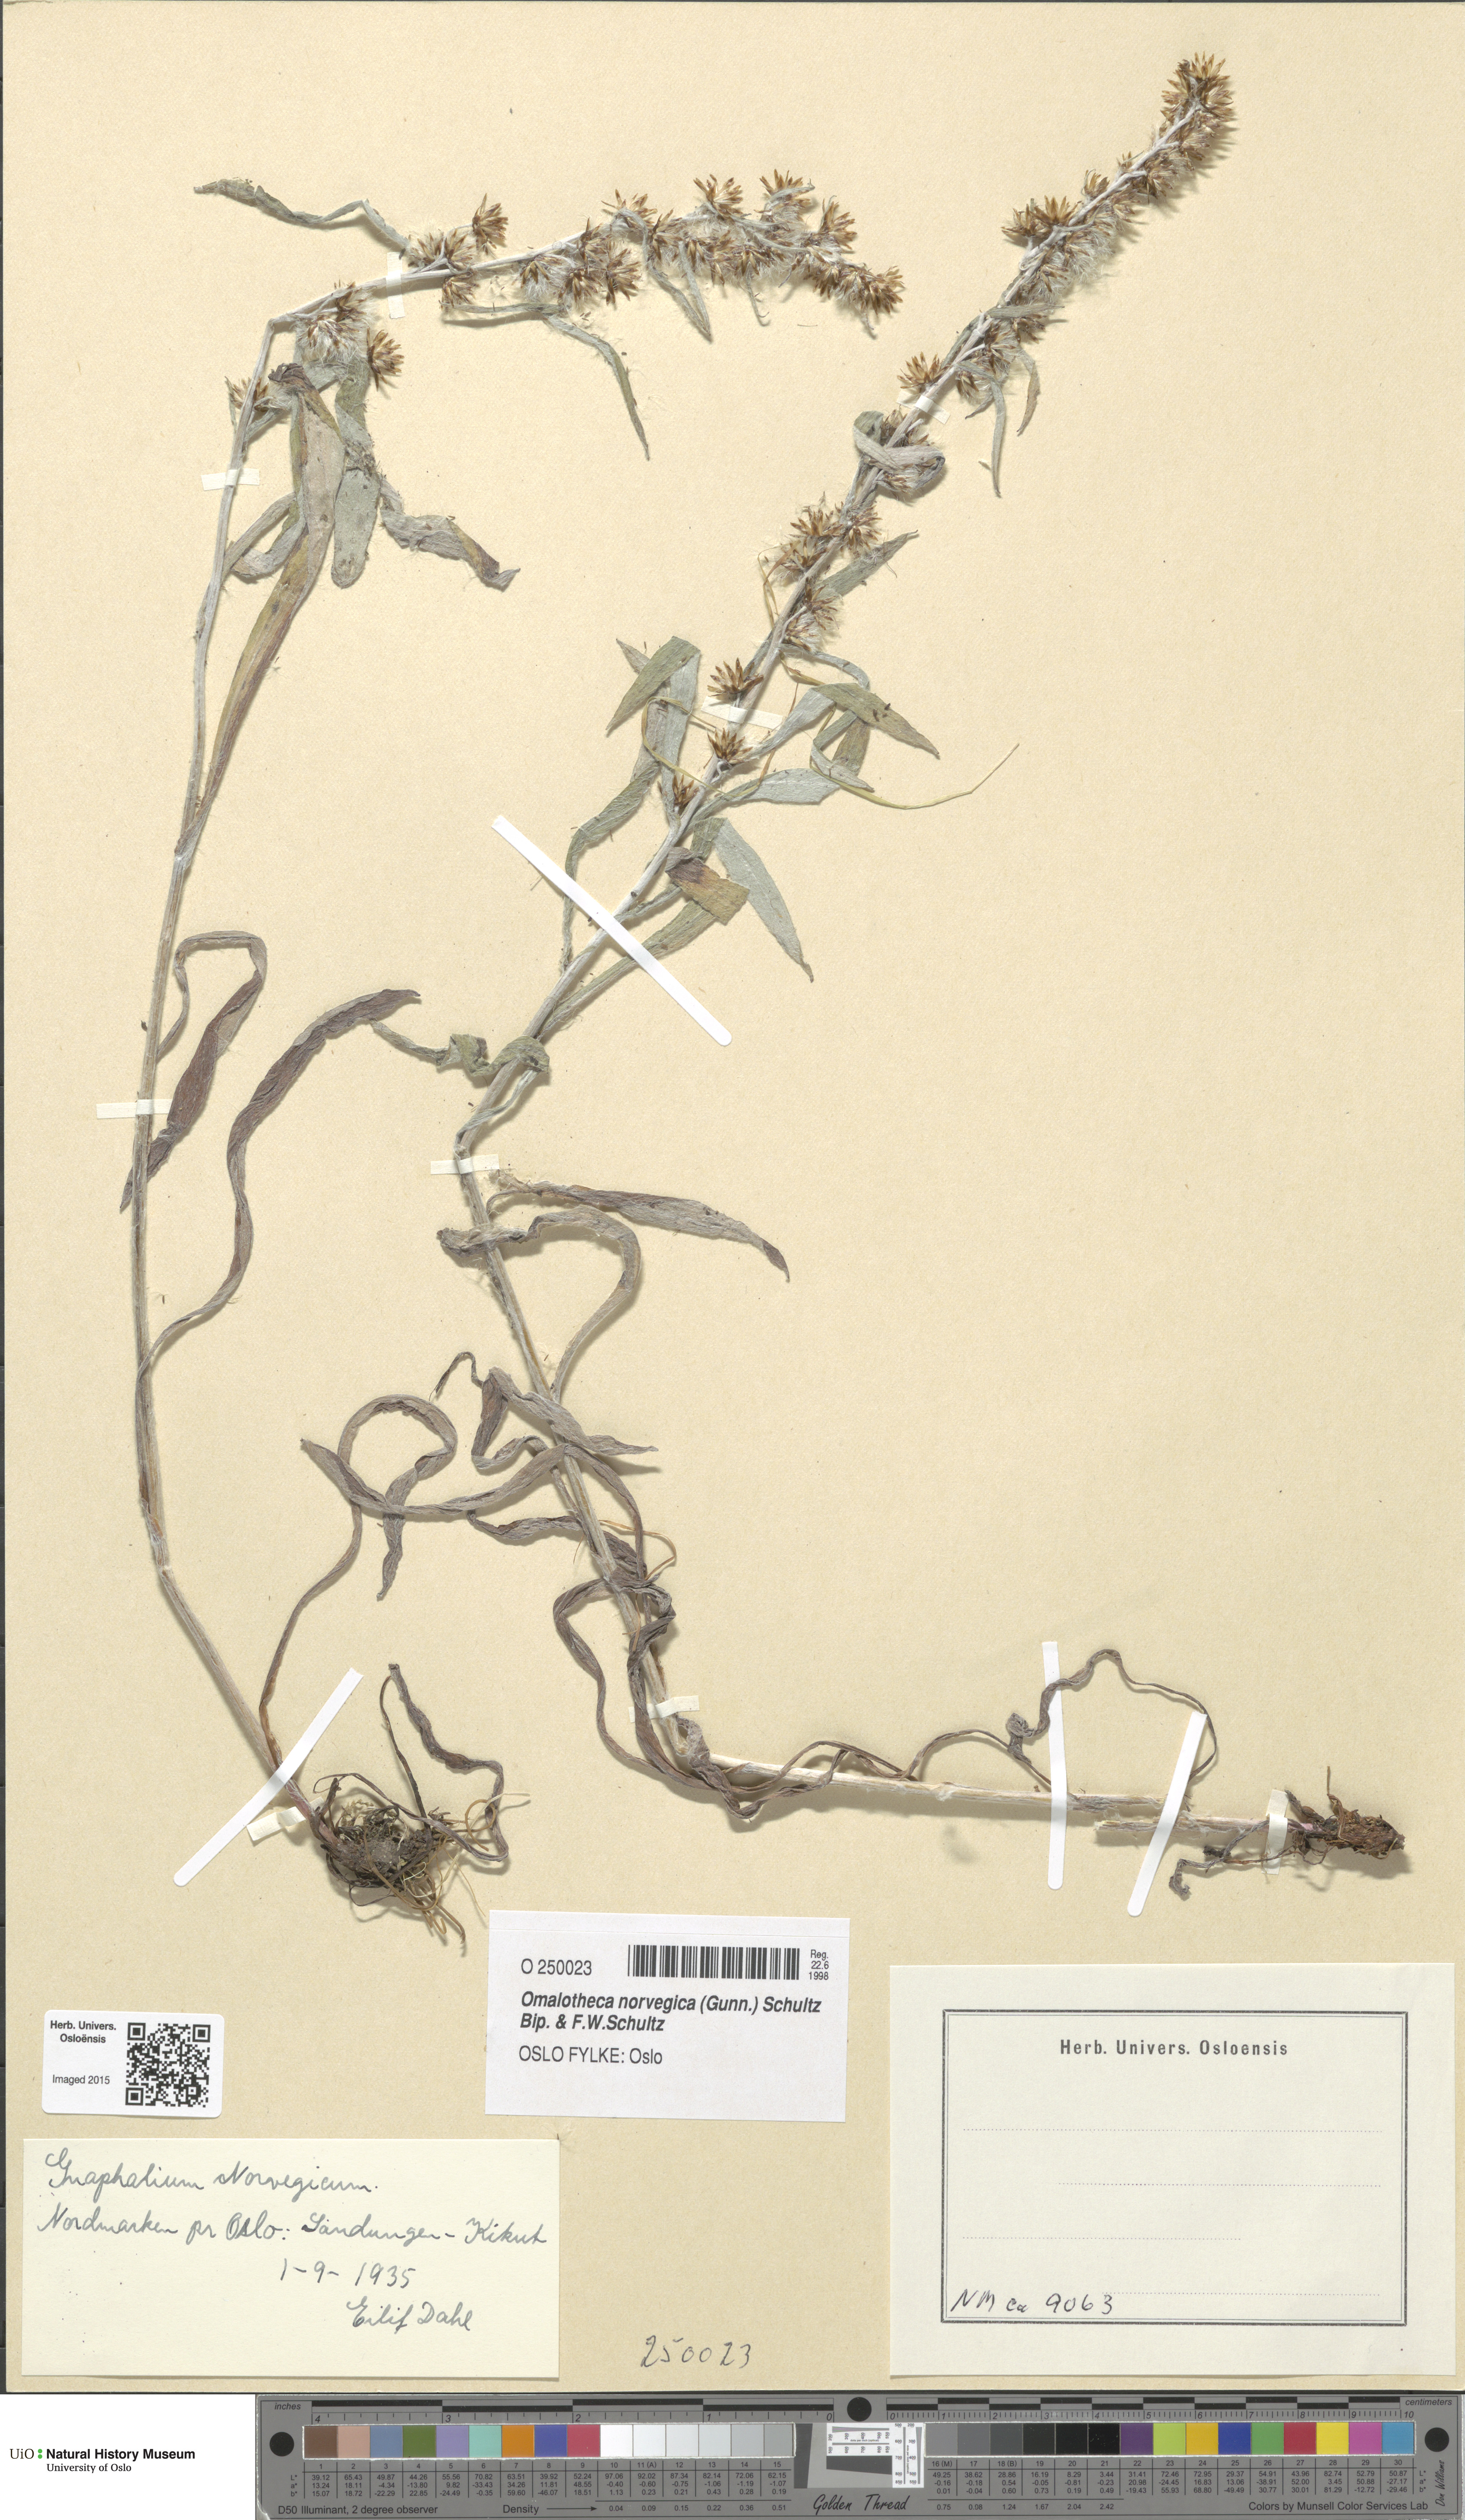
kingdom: Plantae
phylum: Tracheophyta
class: Magnoliopsida
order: Asterales
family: Asteraceae
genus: Omalotheca
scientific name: Omalotheca norvegica
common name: Norwegian arctic-cudweed
